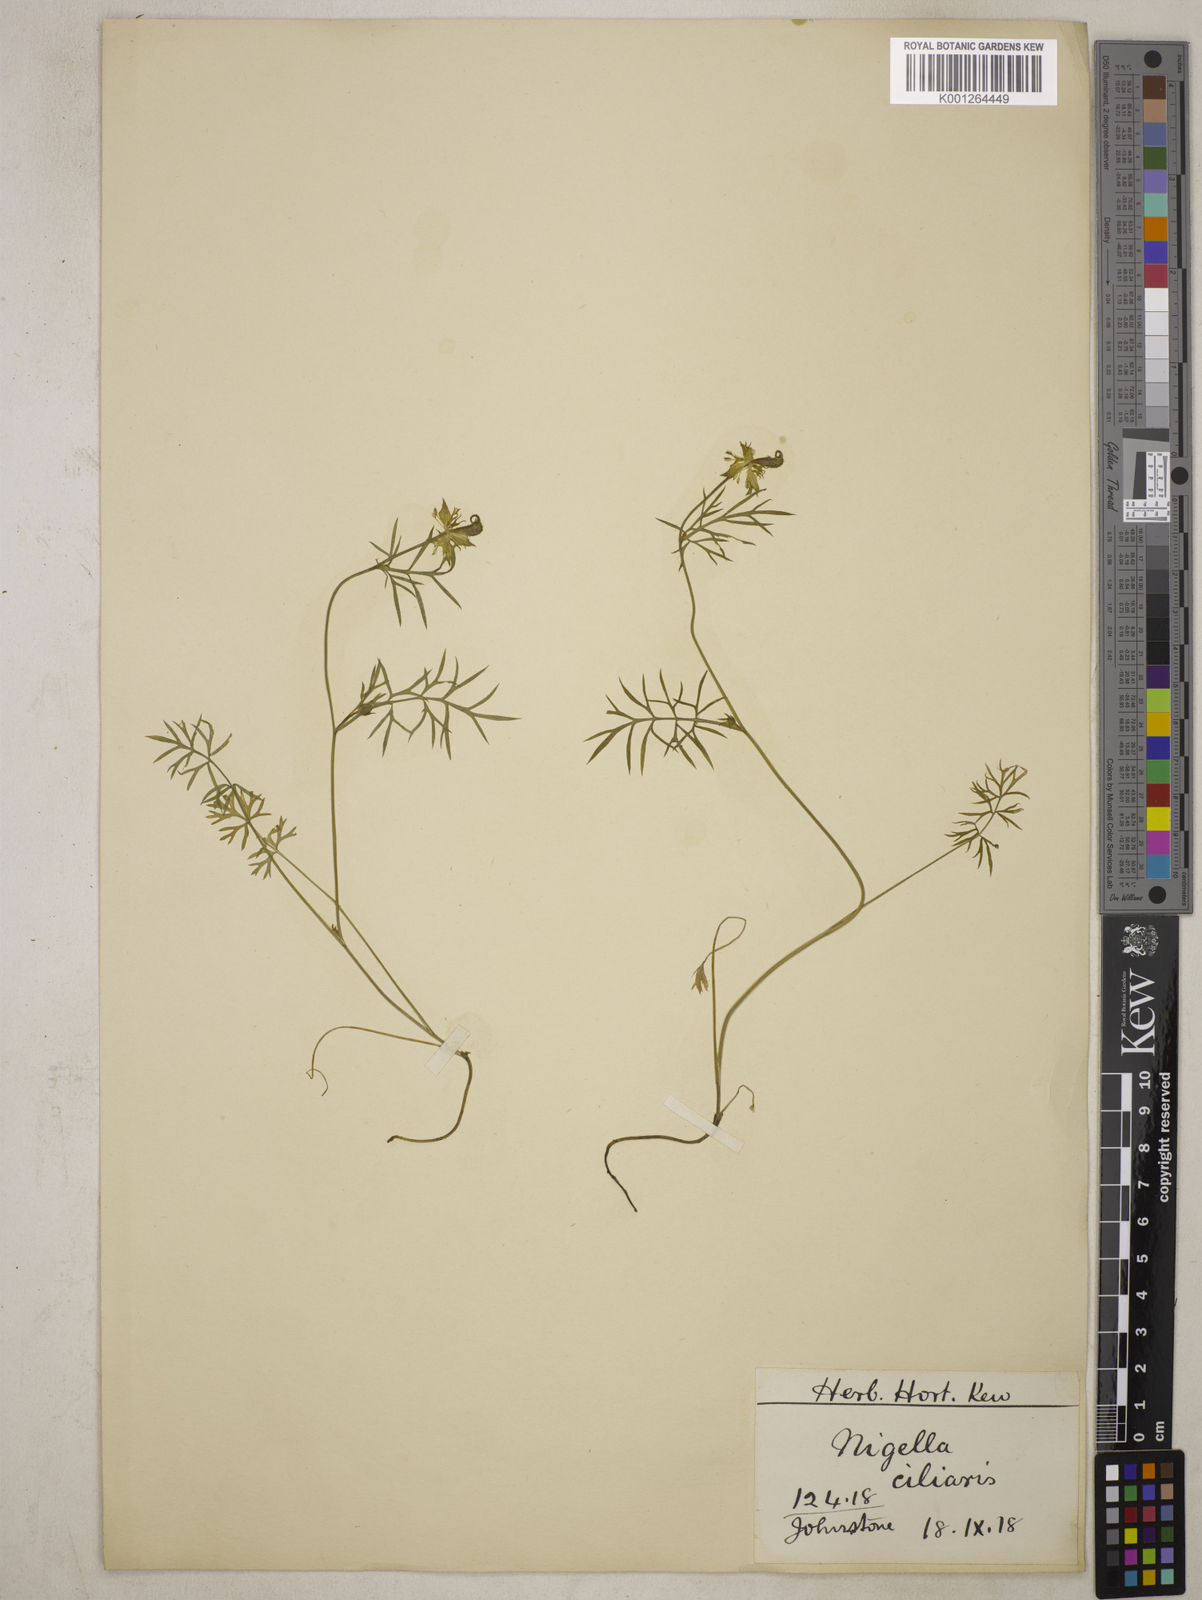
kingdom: Plantae
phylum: Tracheophyta
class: Magnoliopsida
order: Ranunculales
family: Ranunculaceae
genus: Nigella
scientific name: Nigella ciliaris
